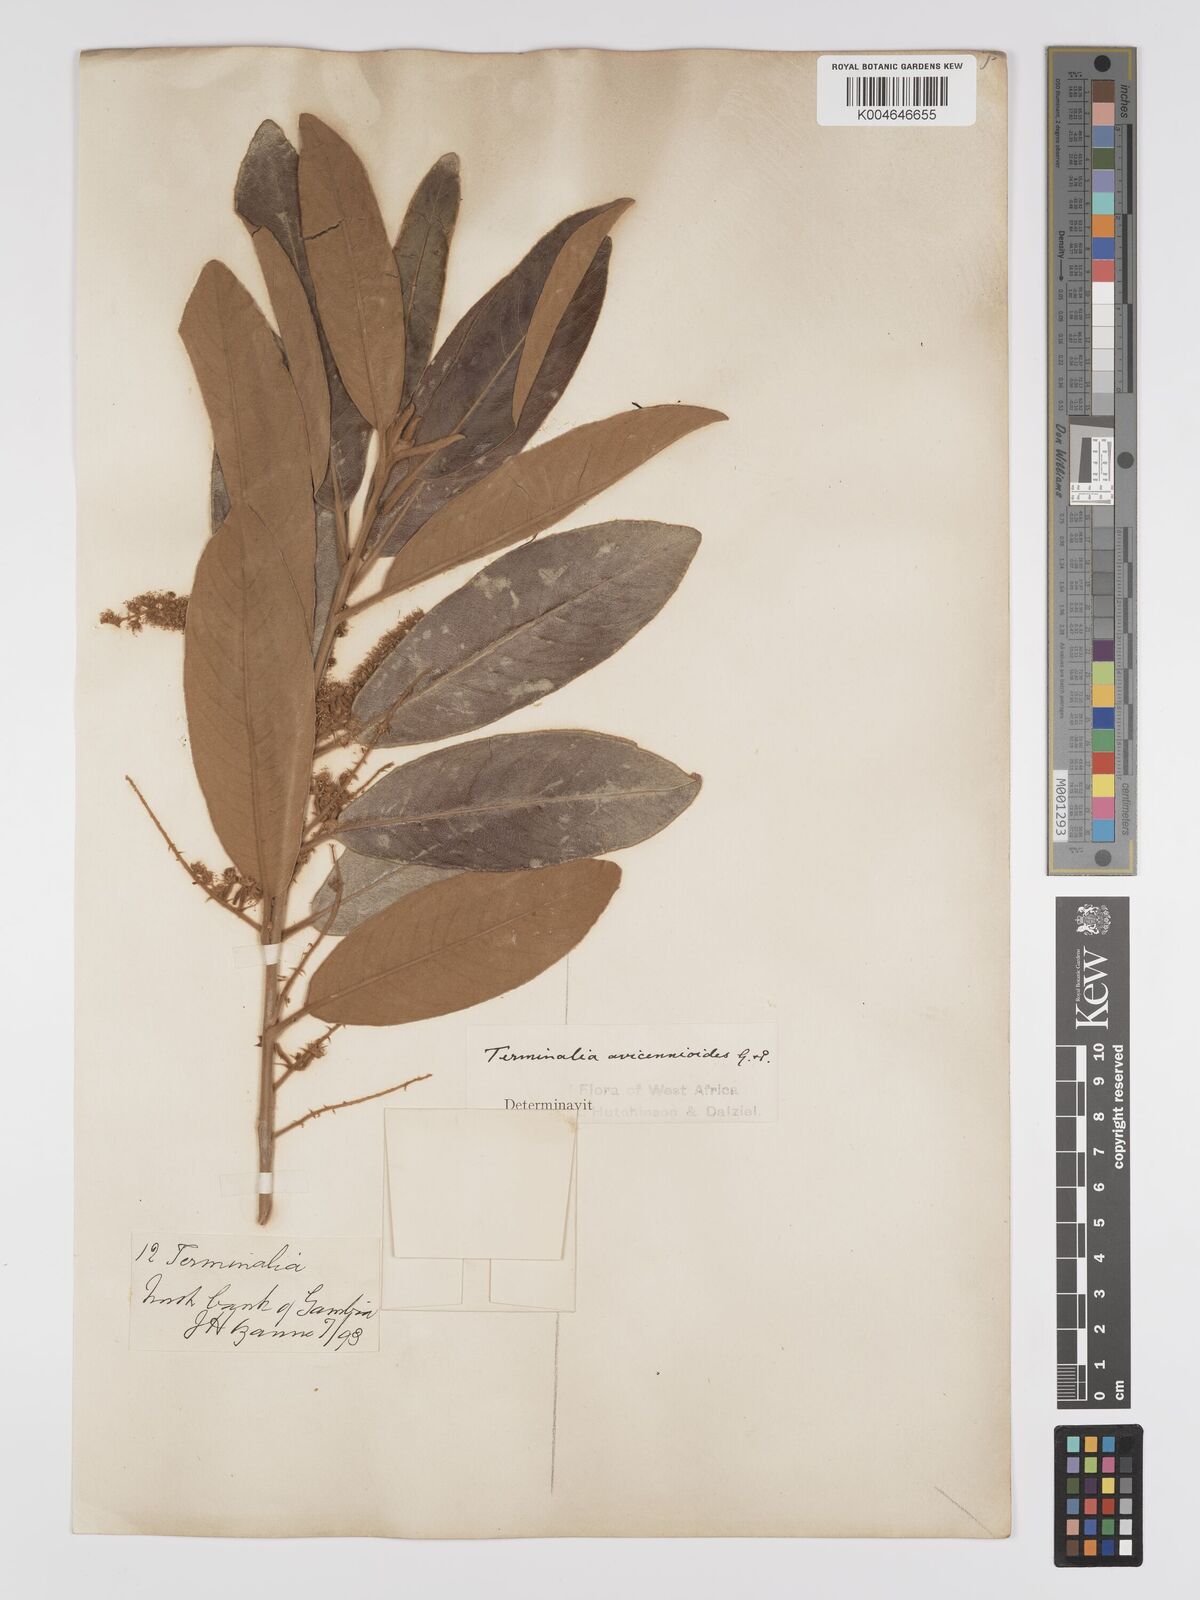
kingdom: Plantae
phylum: Tracheophyta
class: Magnoliopsida
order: Myrtales
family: Combretaceae
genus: Terminalia
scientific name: Terminalia avicennioides
